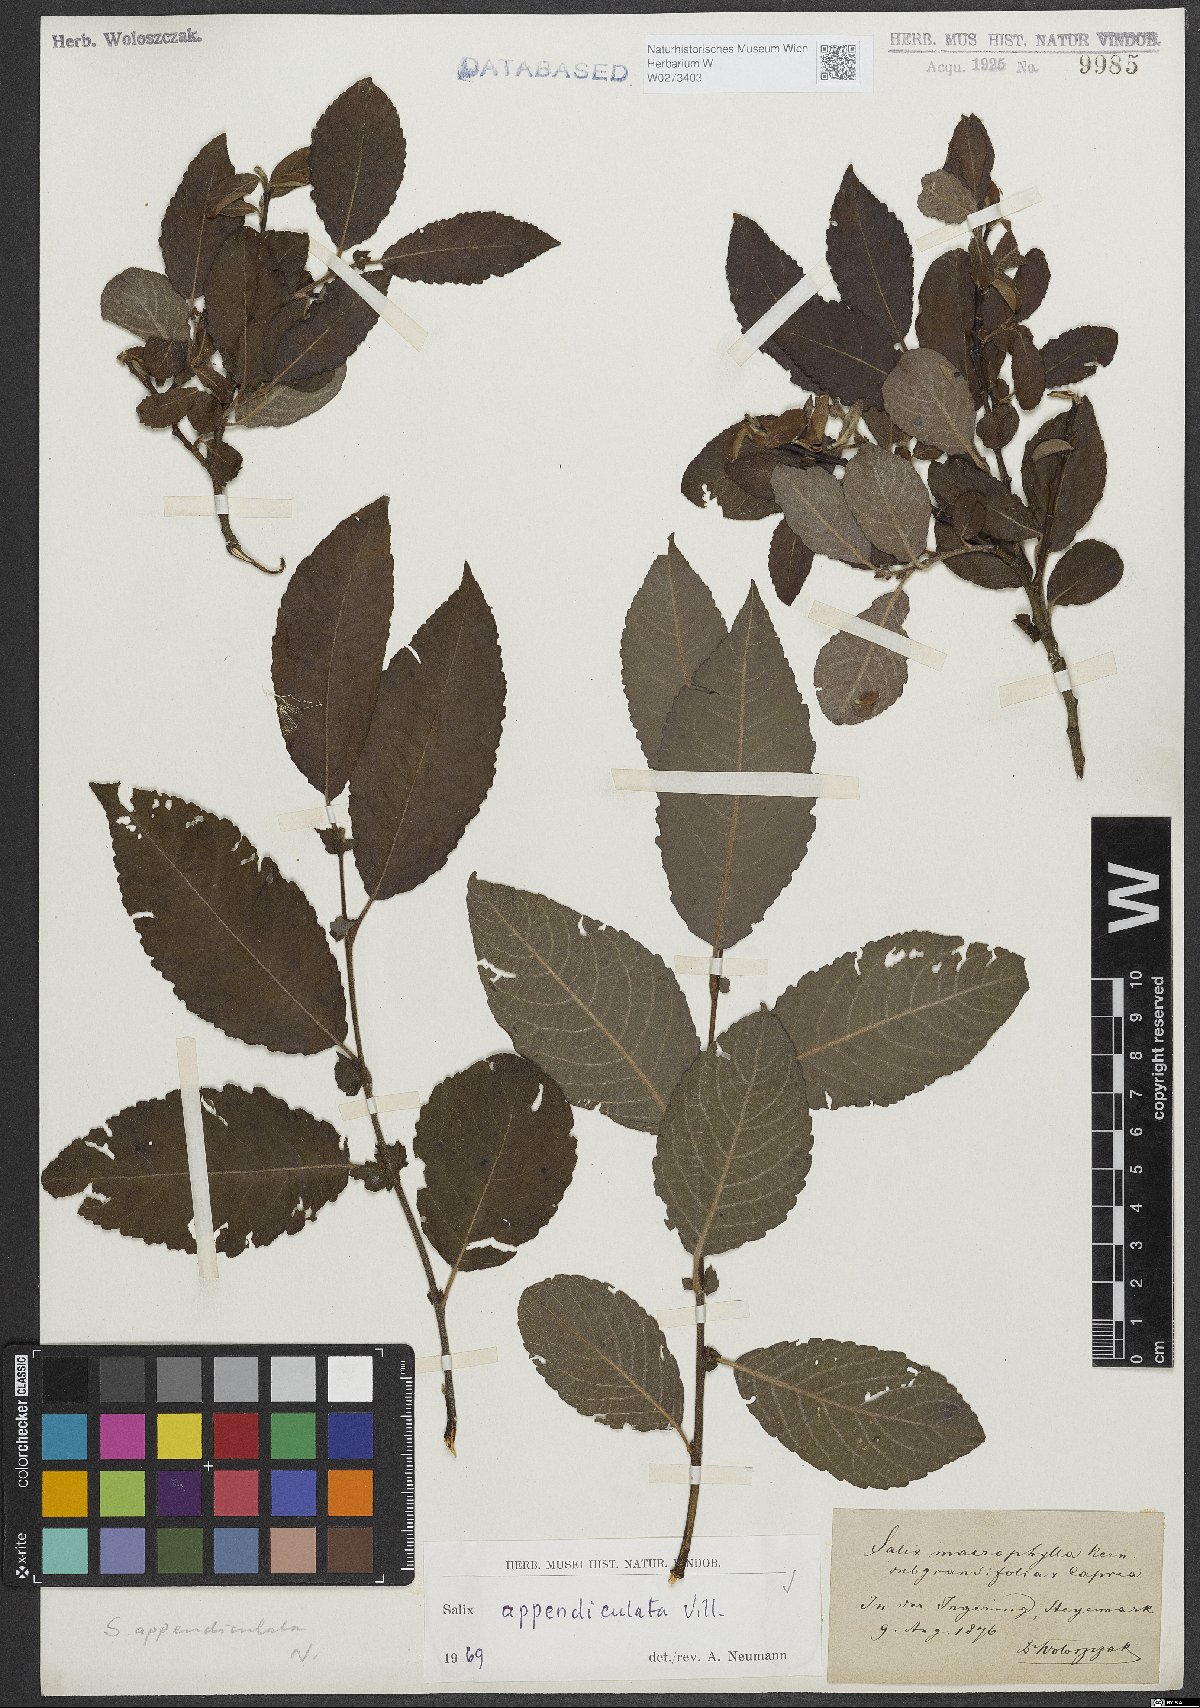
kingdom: Plantae
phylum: Tracheophyta
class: Magnoliopsida
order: Malpighiales
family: Salicaceae
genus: Salix
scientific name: Salix appendiculata
